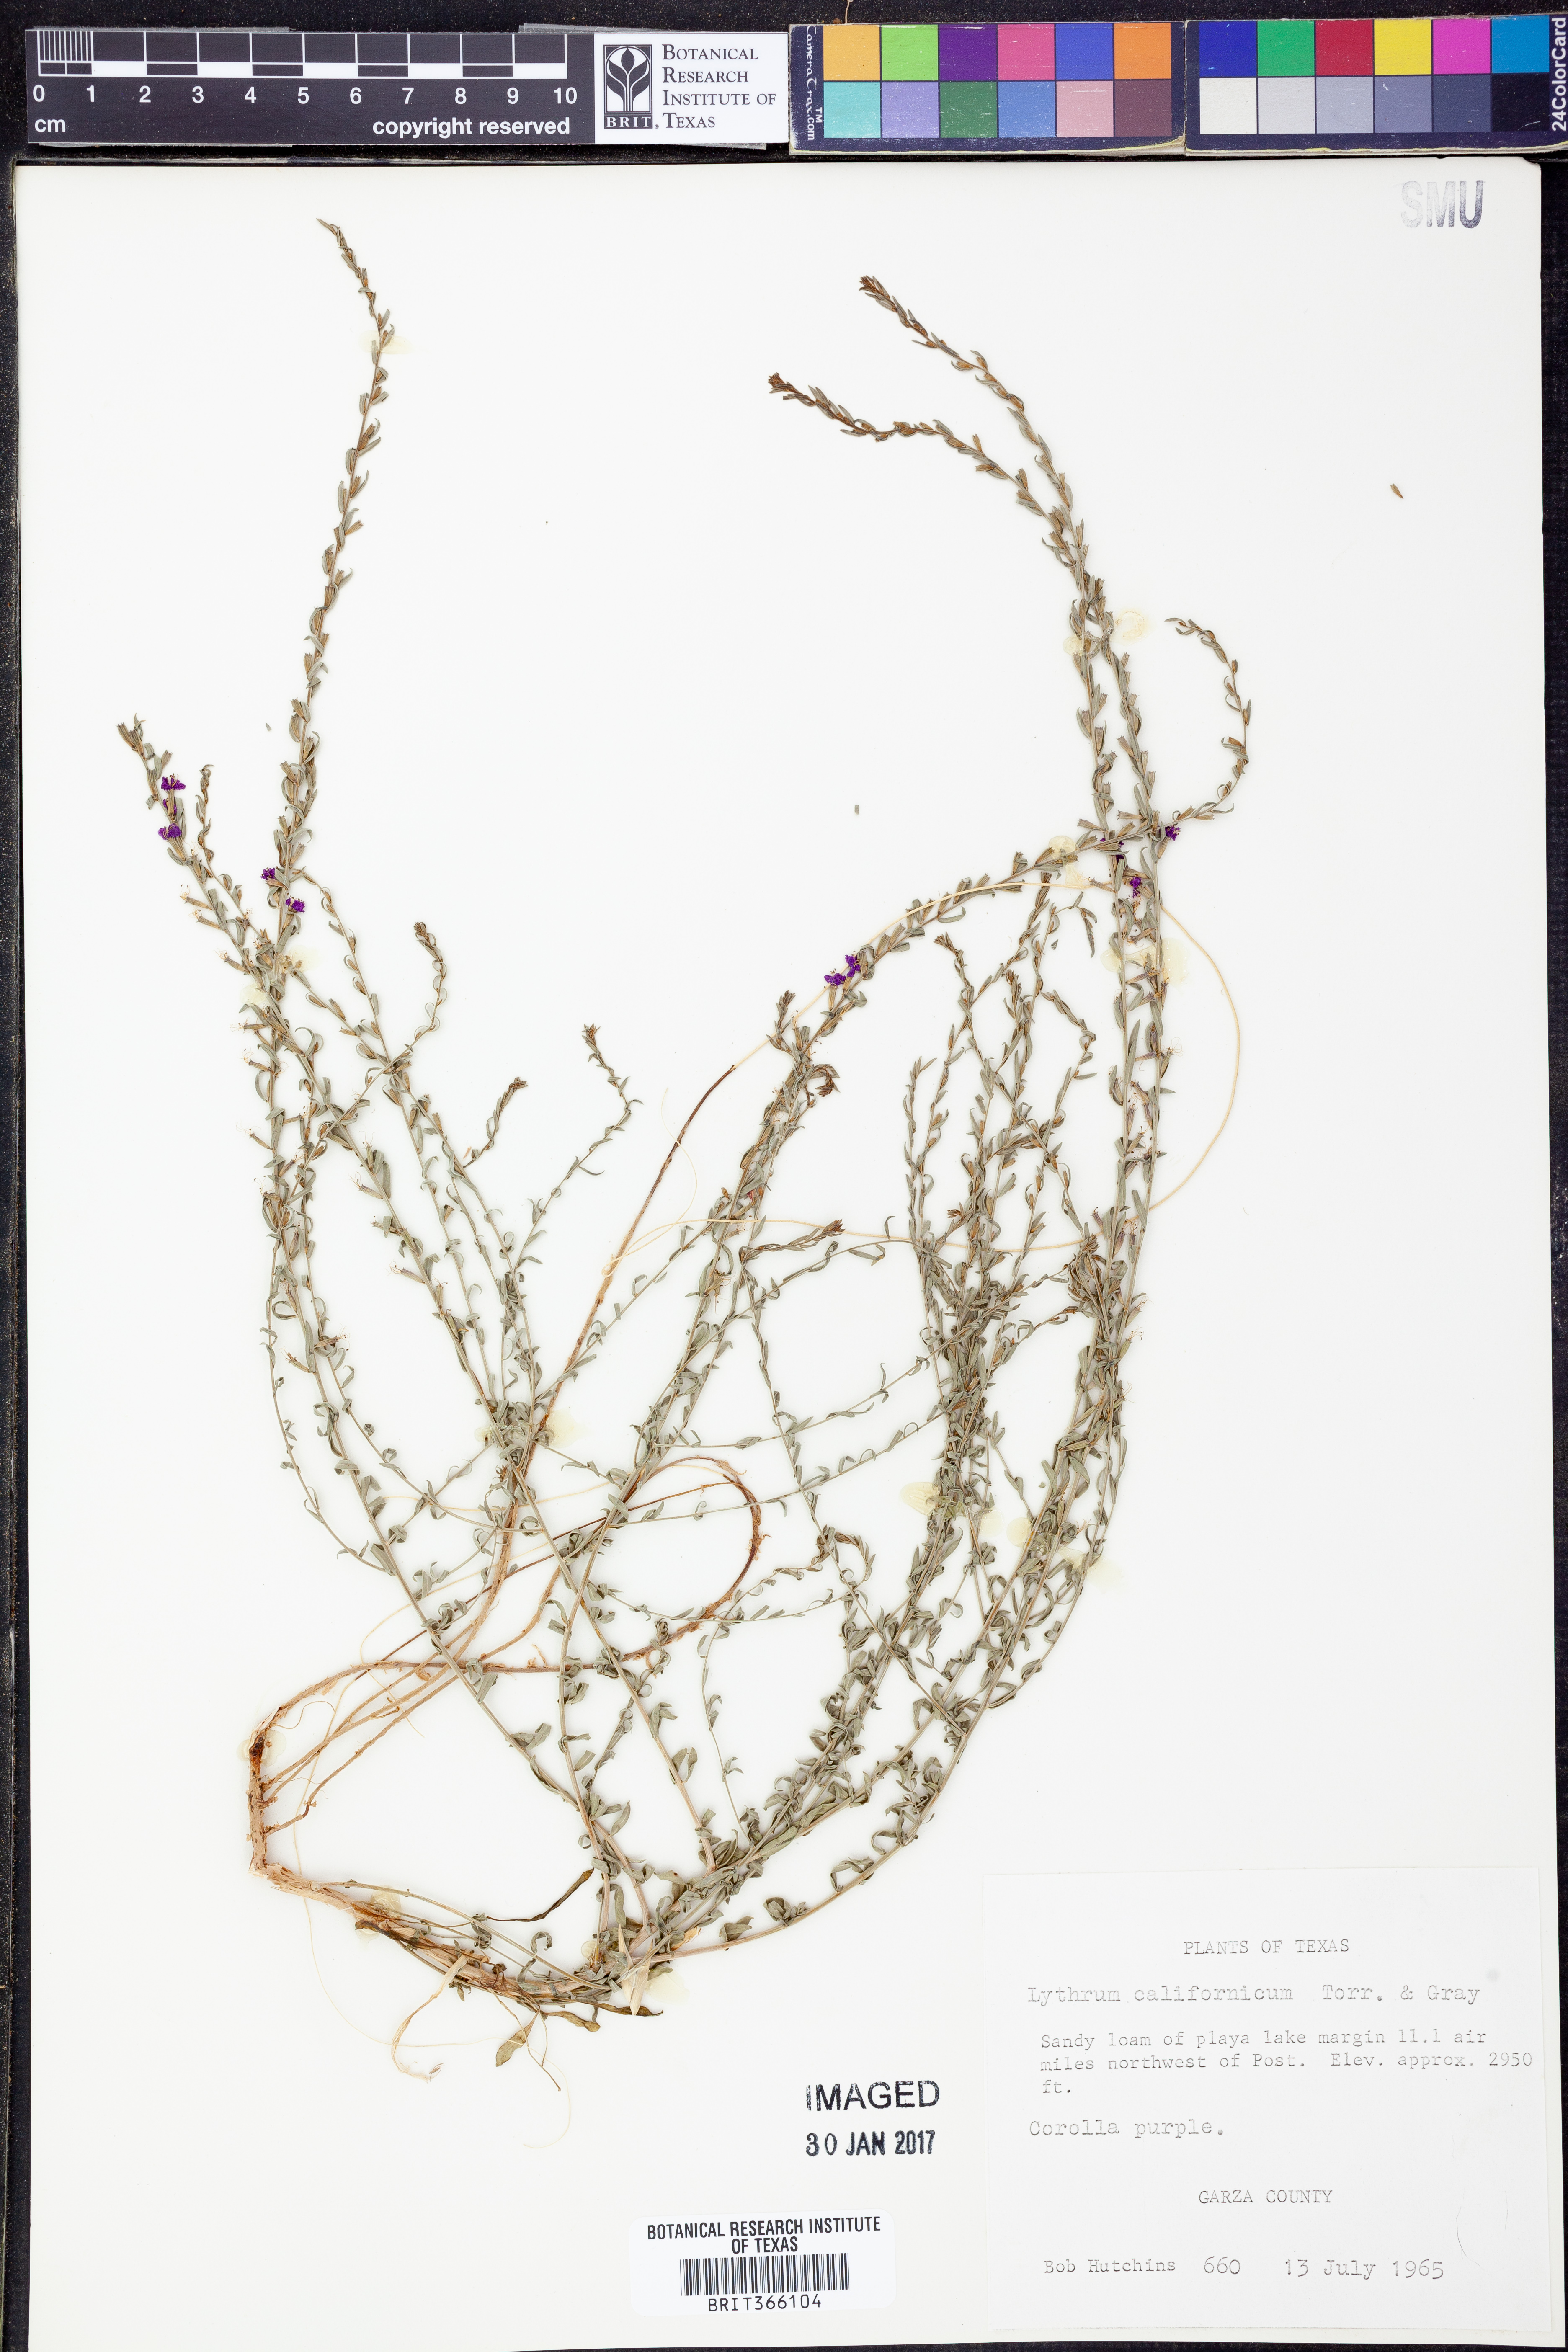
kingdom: Plantae
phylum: Tracheophyta
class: Magnoliopsida
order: Myrtales
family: Lythraceae
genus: Lythrum
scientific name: Lythrum californicum
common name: California loosestrife
